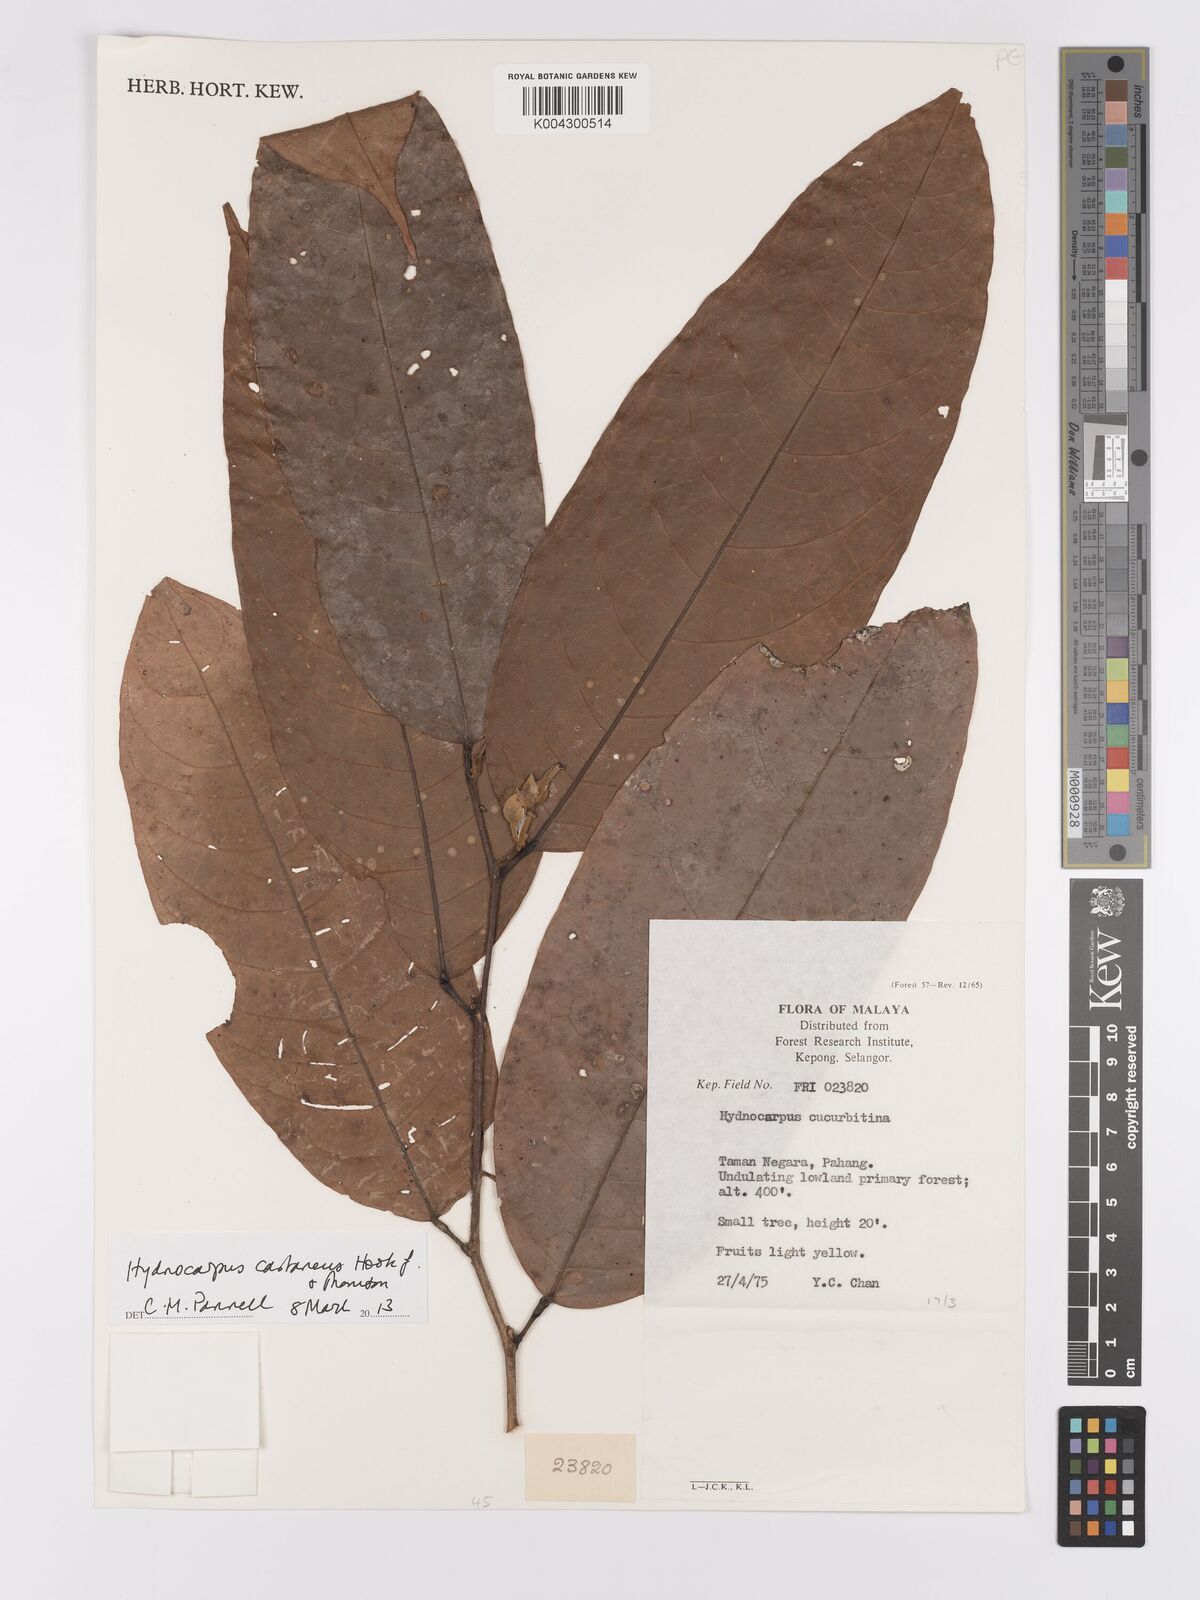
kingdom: Plantae
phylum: Tracheophyta
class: Magnoliopsida
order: Malpighiales
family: Achariaceae
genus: Hydnocarpus
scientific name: Hydnocarpus castaneus
